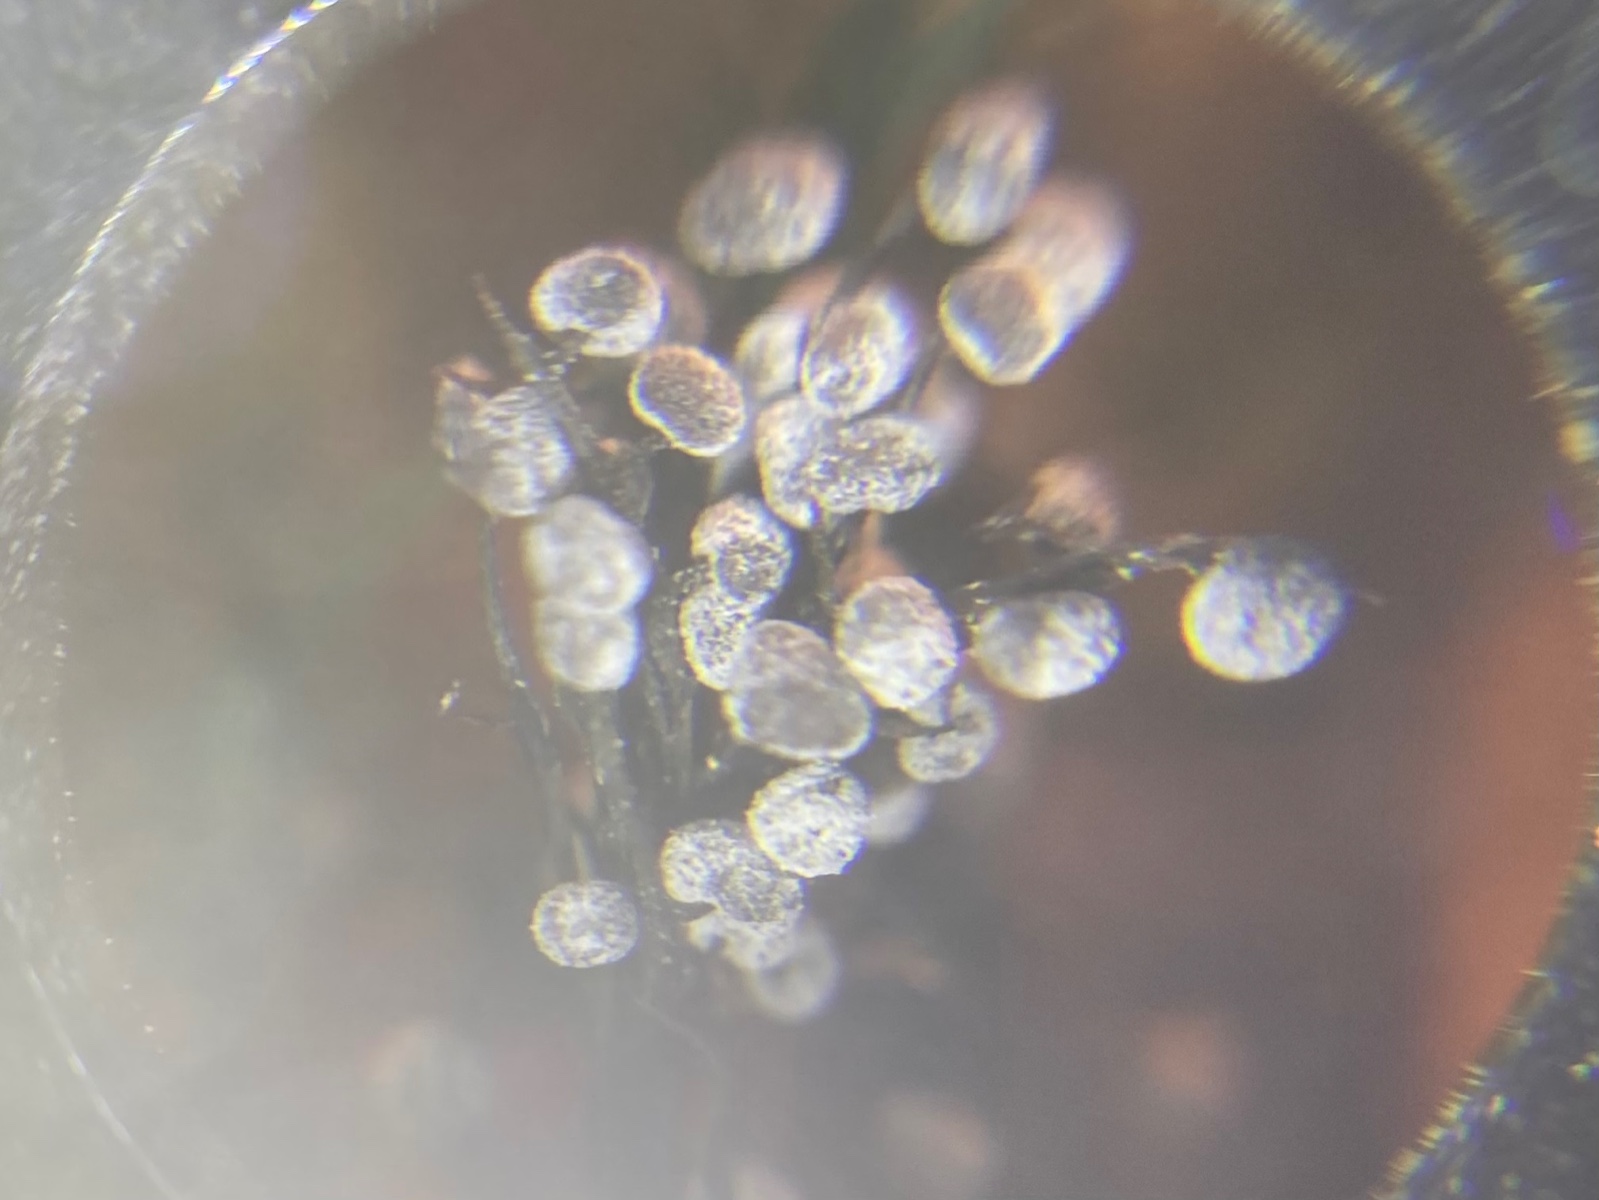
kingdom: Protozoa
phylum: Mycetozoa
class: Myxomycetes
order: Physarales
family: Didymiaceae
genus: Didymium
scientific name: Didymium melanospermum
